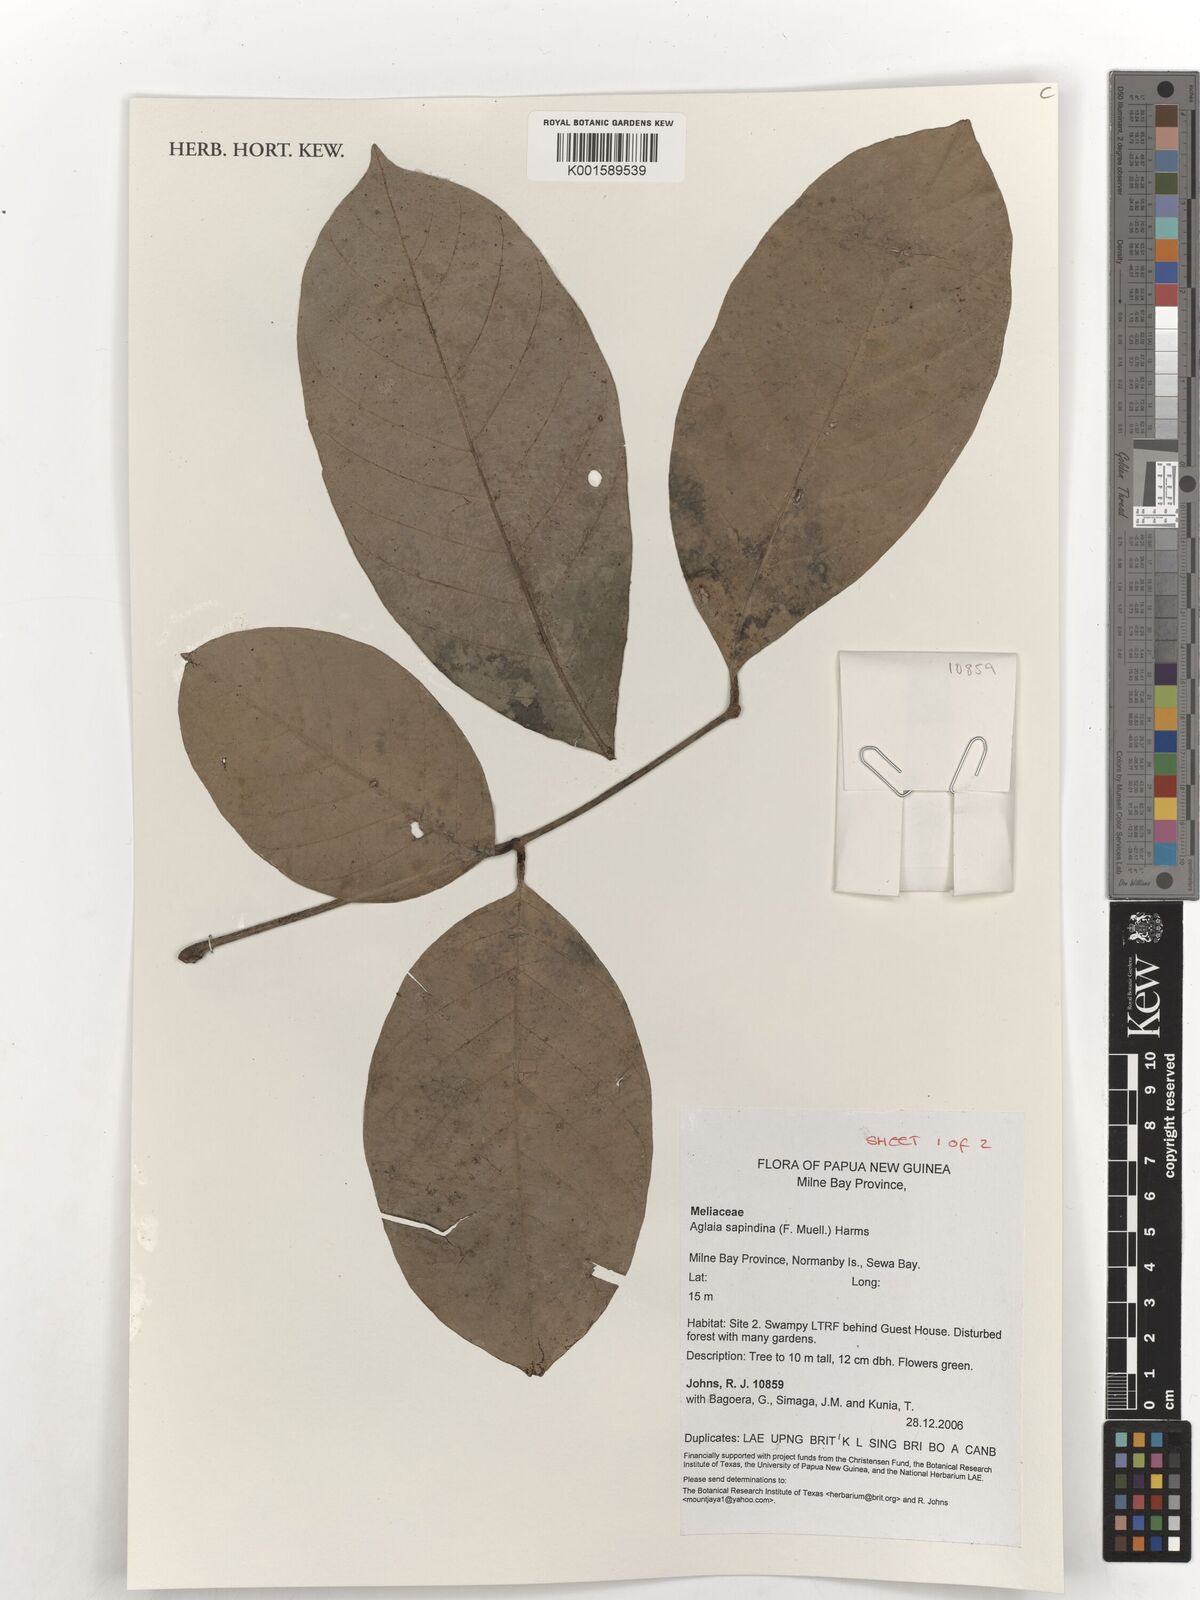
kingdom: Plantae
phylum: Tracheophyta
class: Magnoliopsida
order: Sapindales
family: Meliaceae
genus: Aglaia
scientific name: Aglaia sapindina
